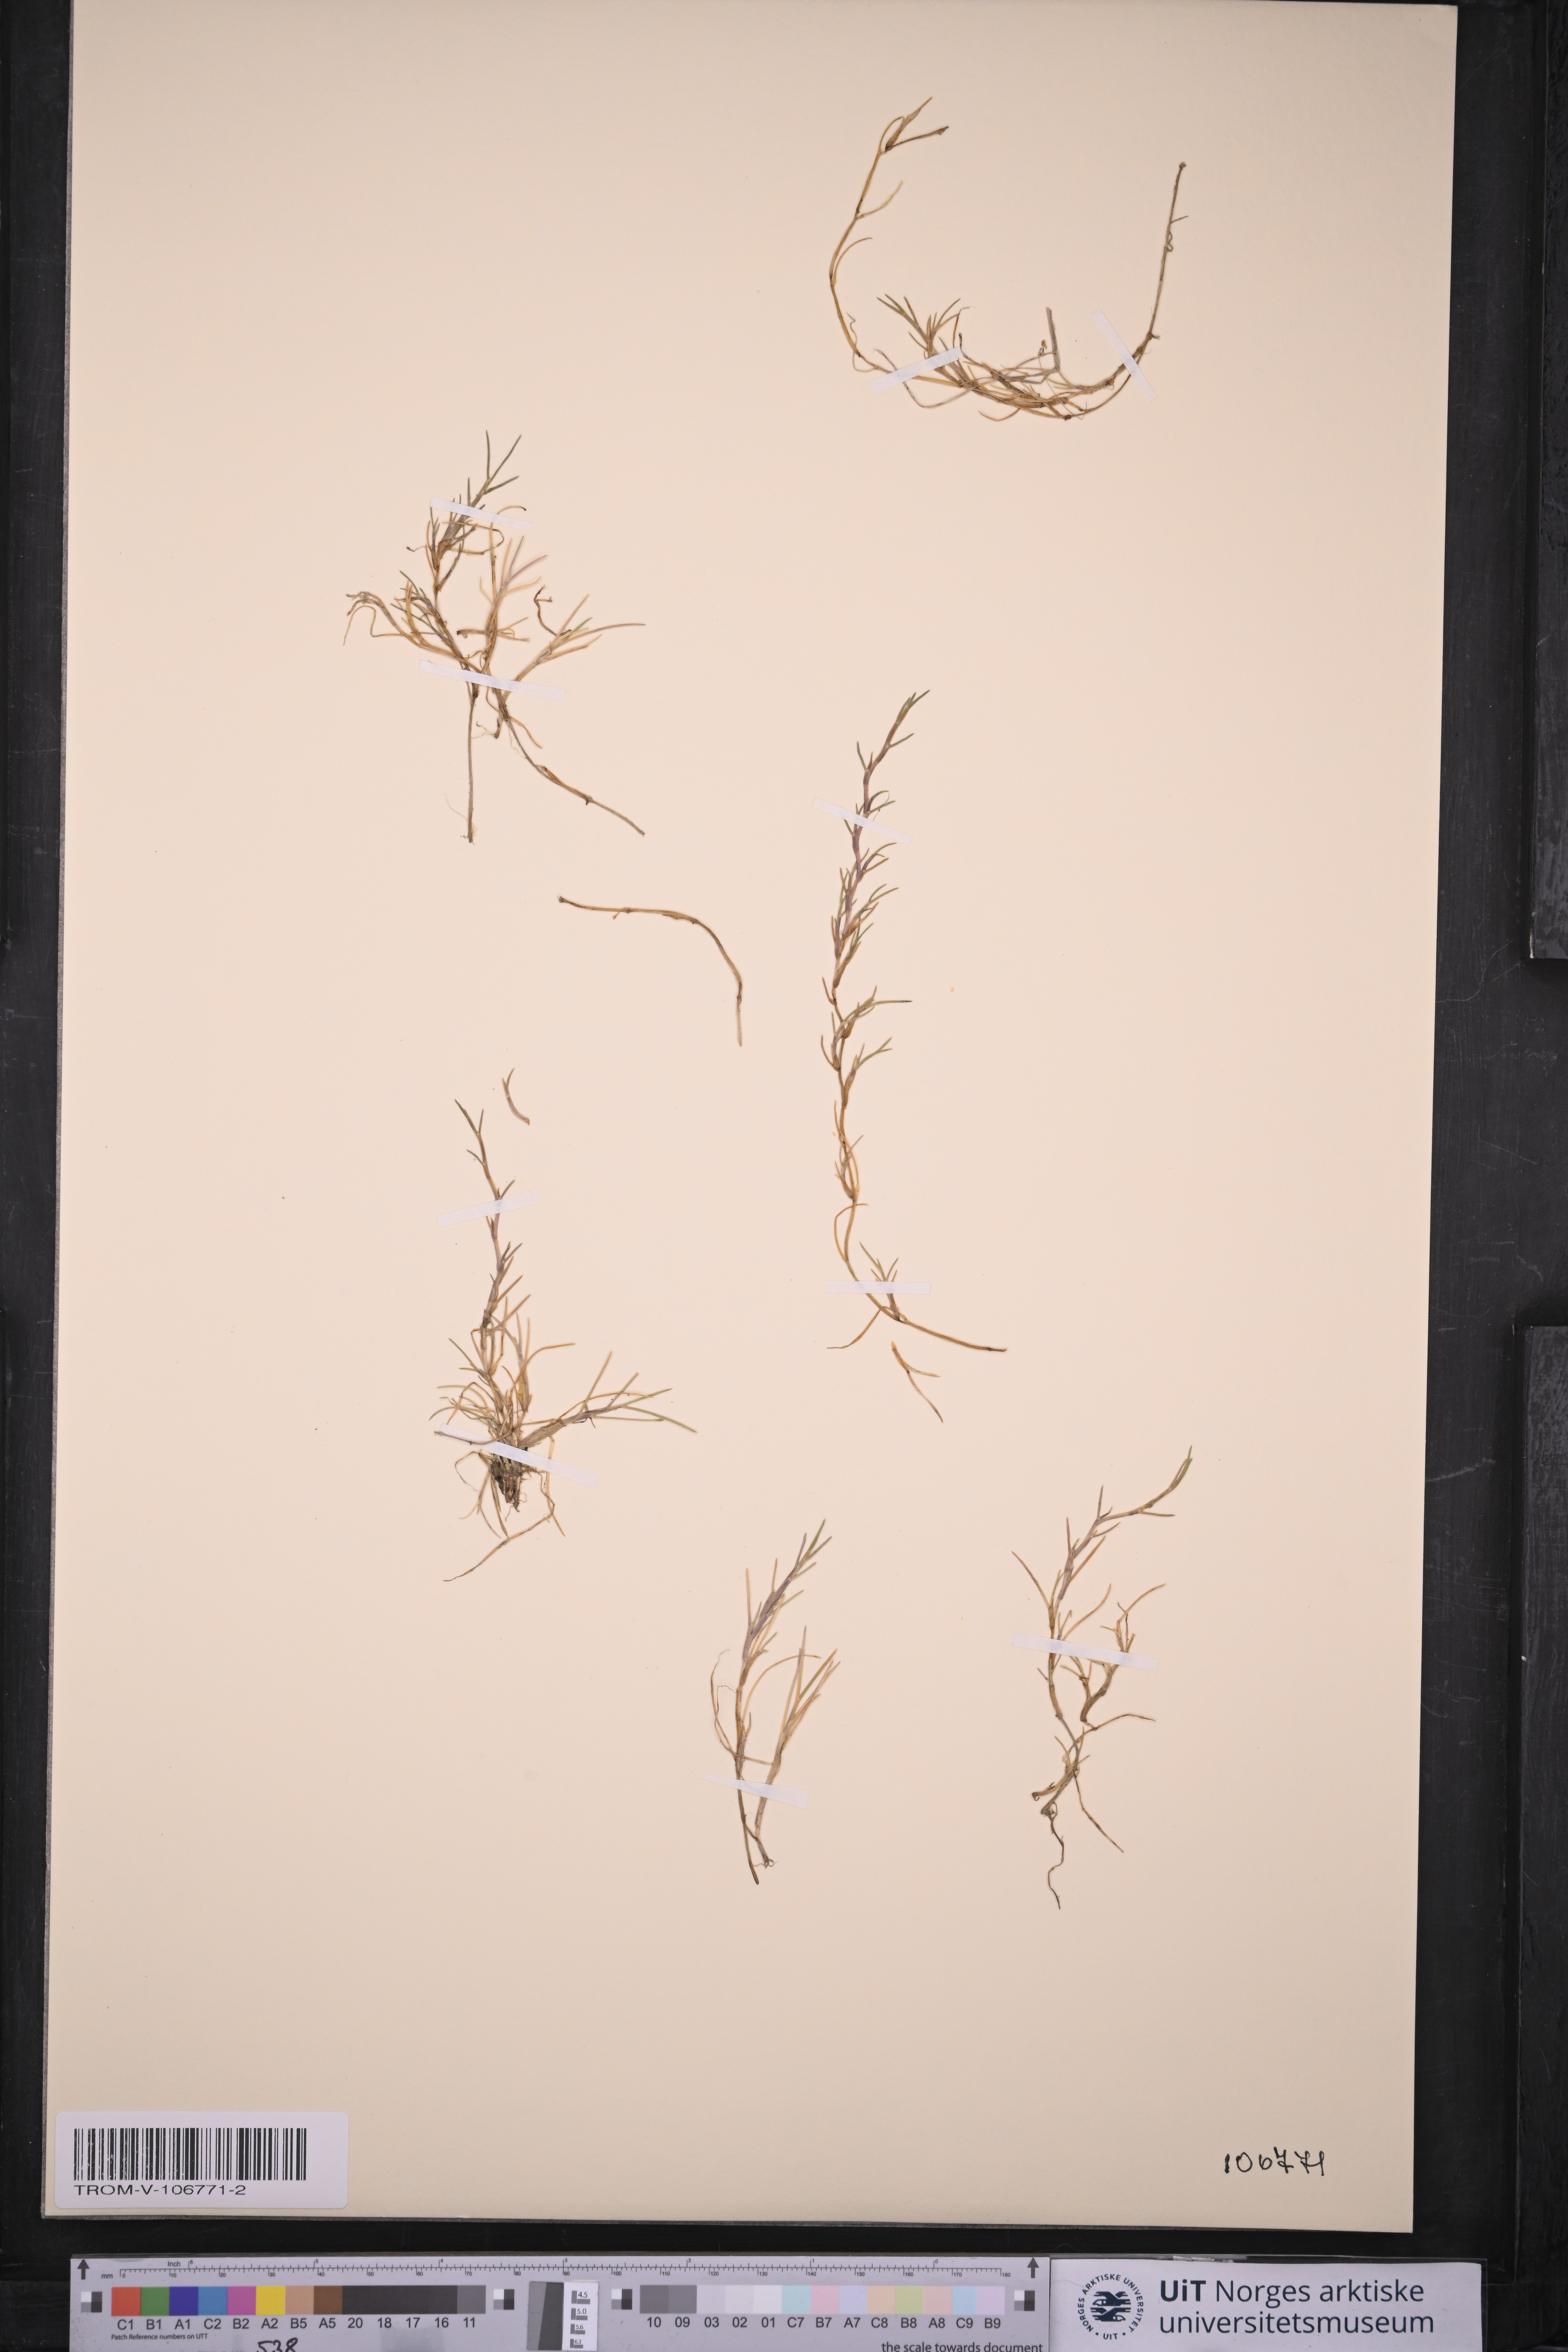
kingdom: Plantae
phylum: Tracheophyta
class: Liliopsida
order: Poales
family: Poaceae
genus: Puccinellia
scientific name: Puccinellia phryganodes
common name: Creeping alkaligrass
